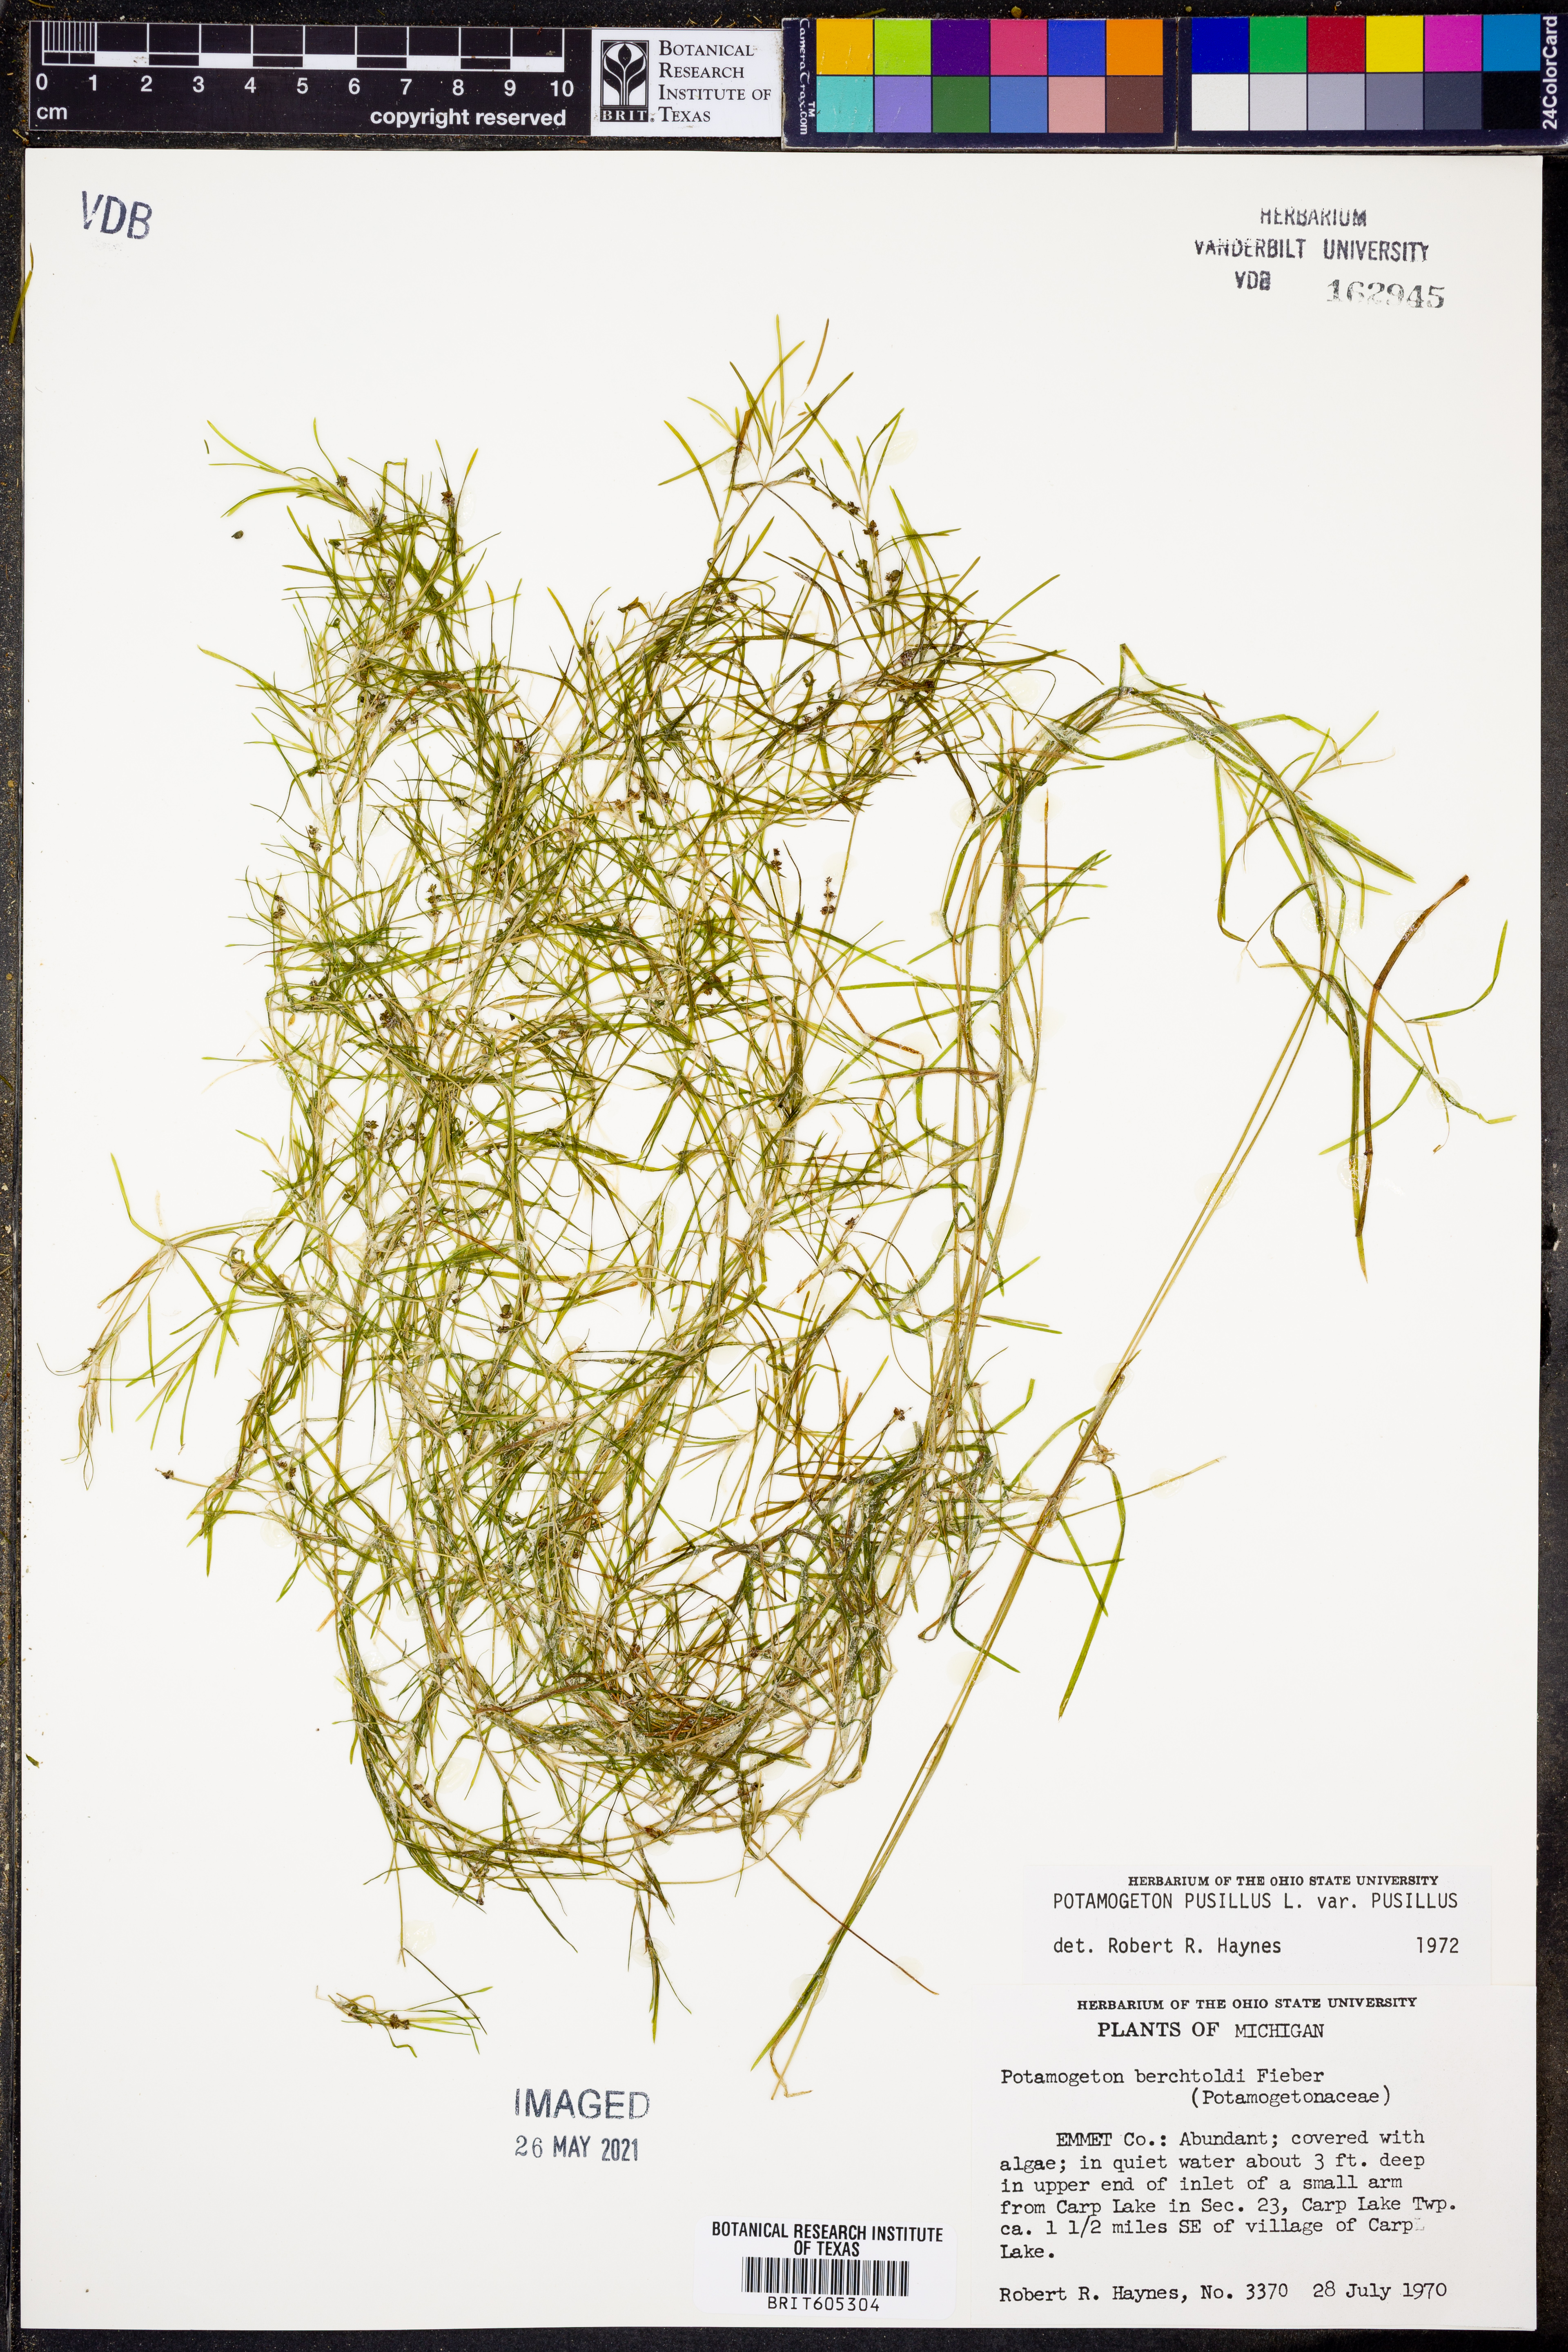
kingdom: Plantae
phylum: Tracheophyta
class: Liliopsida
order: Alismatales
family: Potamogetonaceae
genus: Potamogeton
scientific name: Potamogeton pusillus
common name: Lesser pondweed
